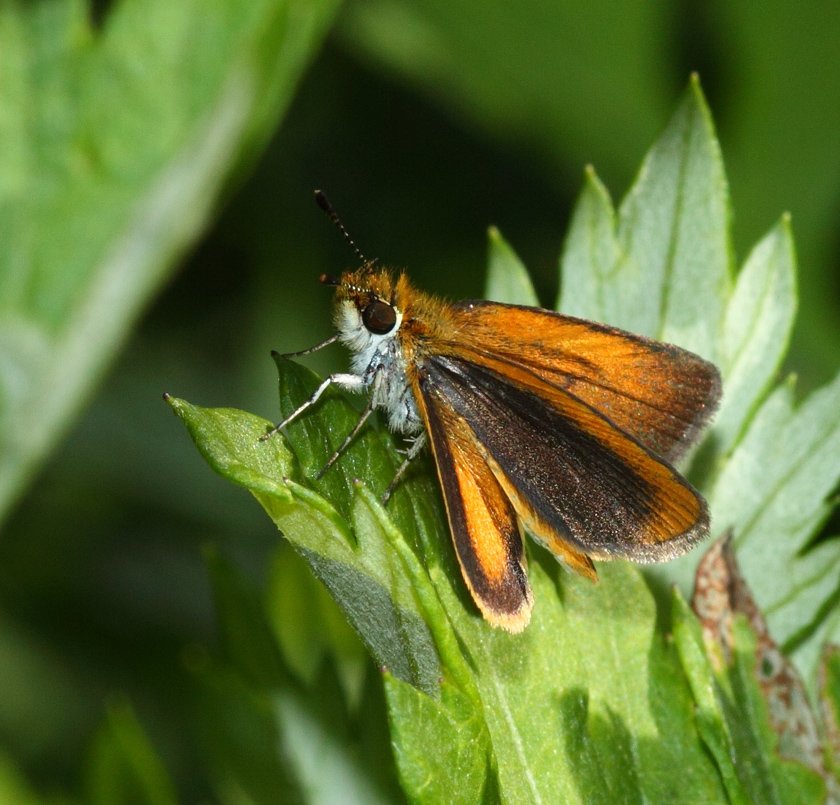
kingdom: Animalia
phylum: Arthropoda
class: Insecta
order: Lepidoptera
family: Hesperiidae
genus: Ancyloxypha
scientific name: Ancyloxypha numitor
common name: Least Skipper
